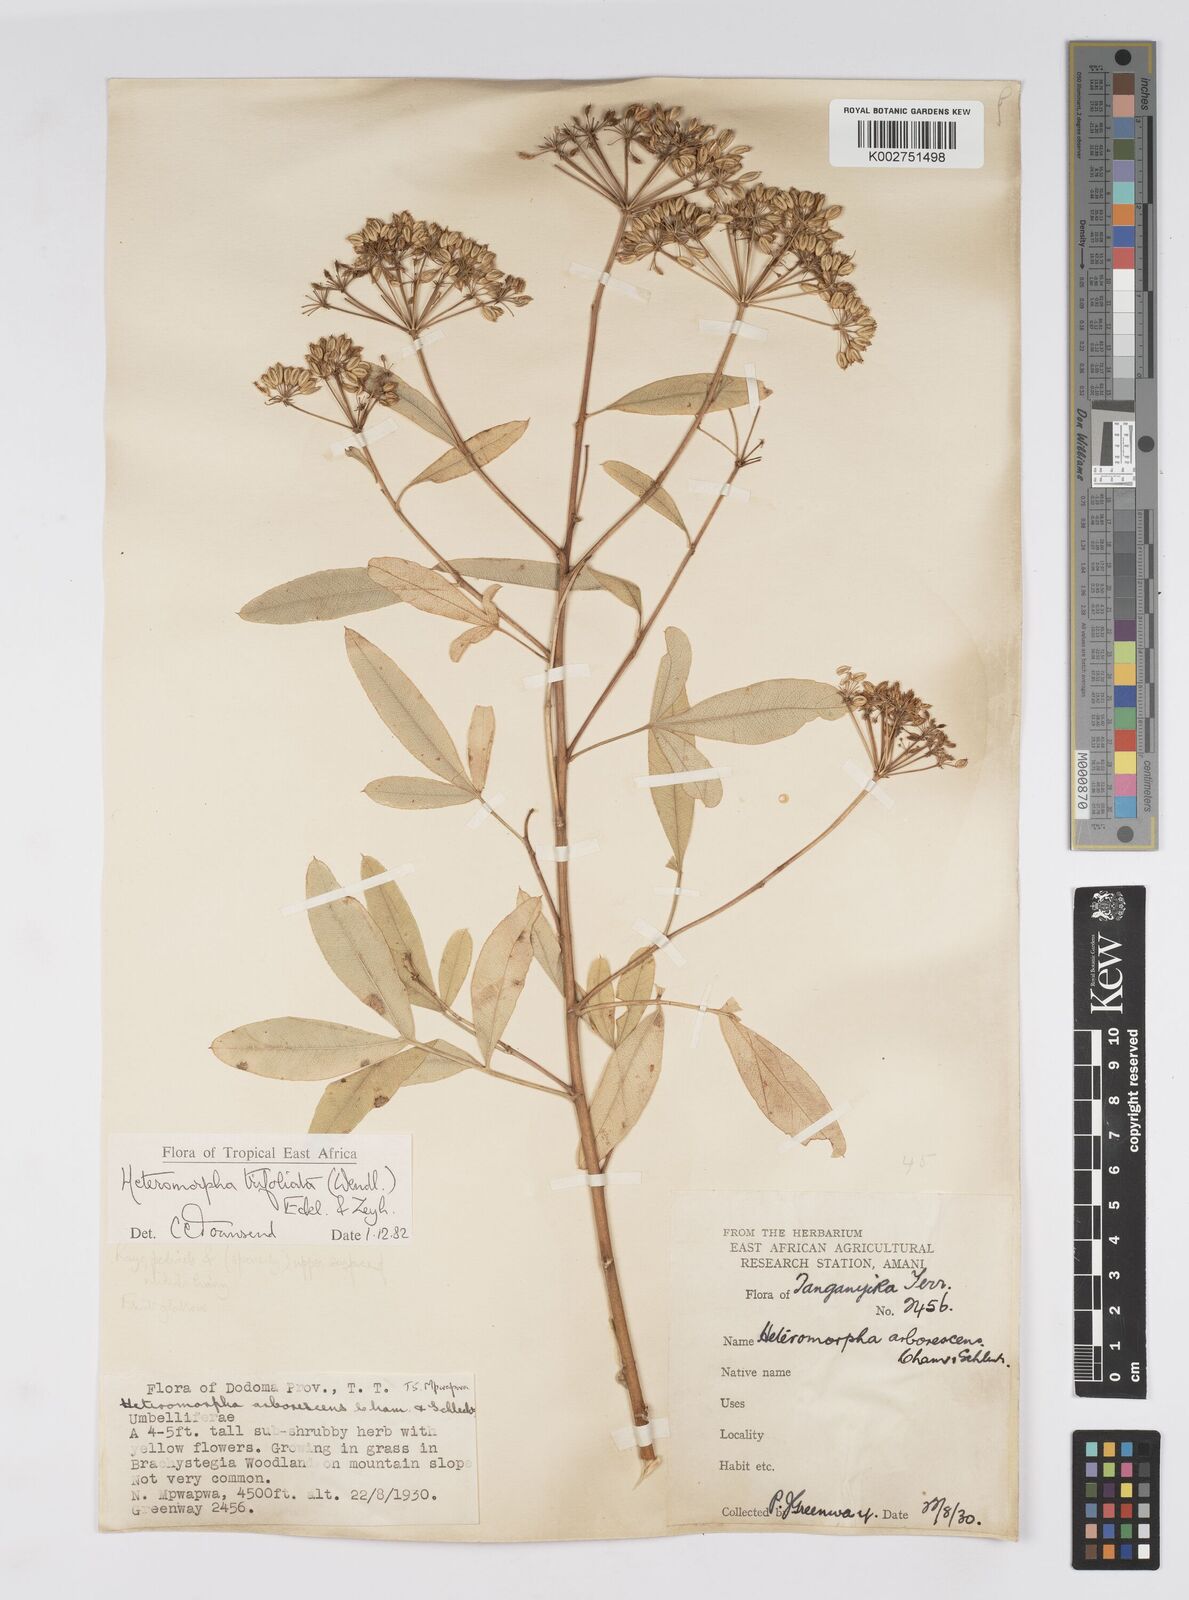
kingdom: Plantae
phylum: Tracheophyta
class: Magnoliopsida
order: Apiales
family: Apiaceae
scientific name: Apiaceae
